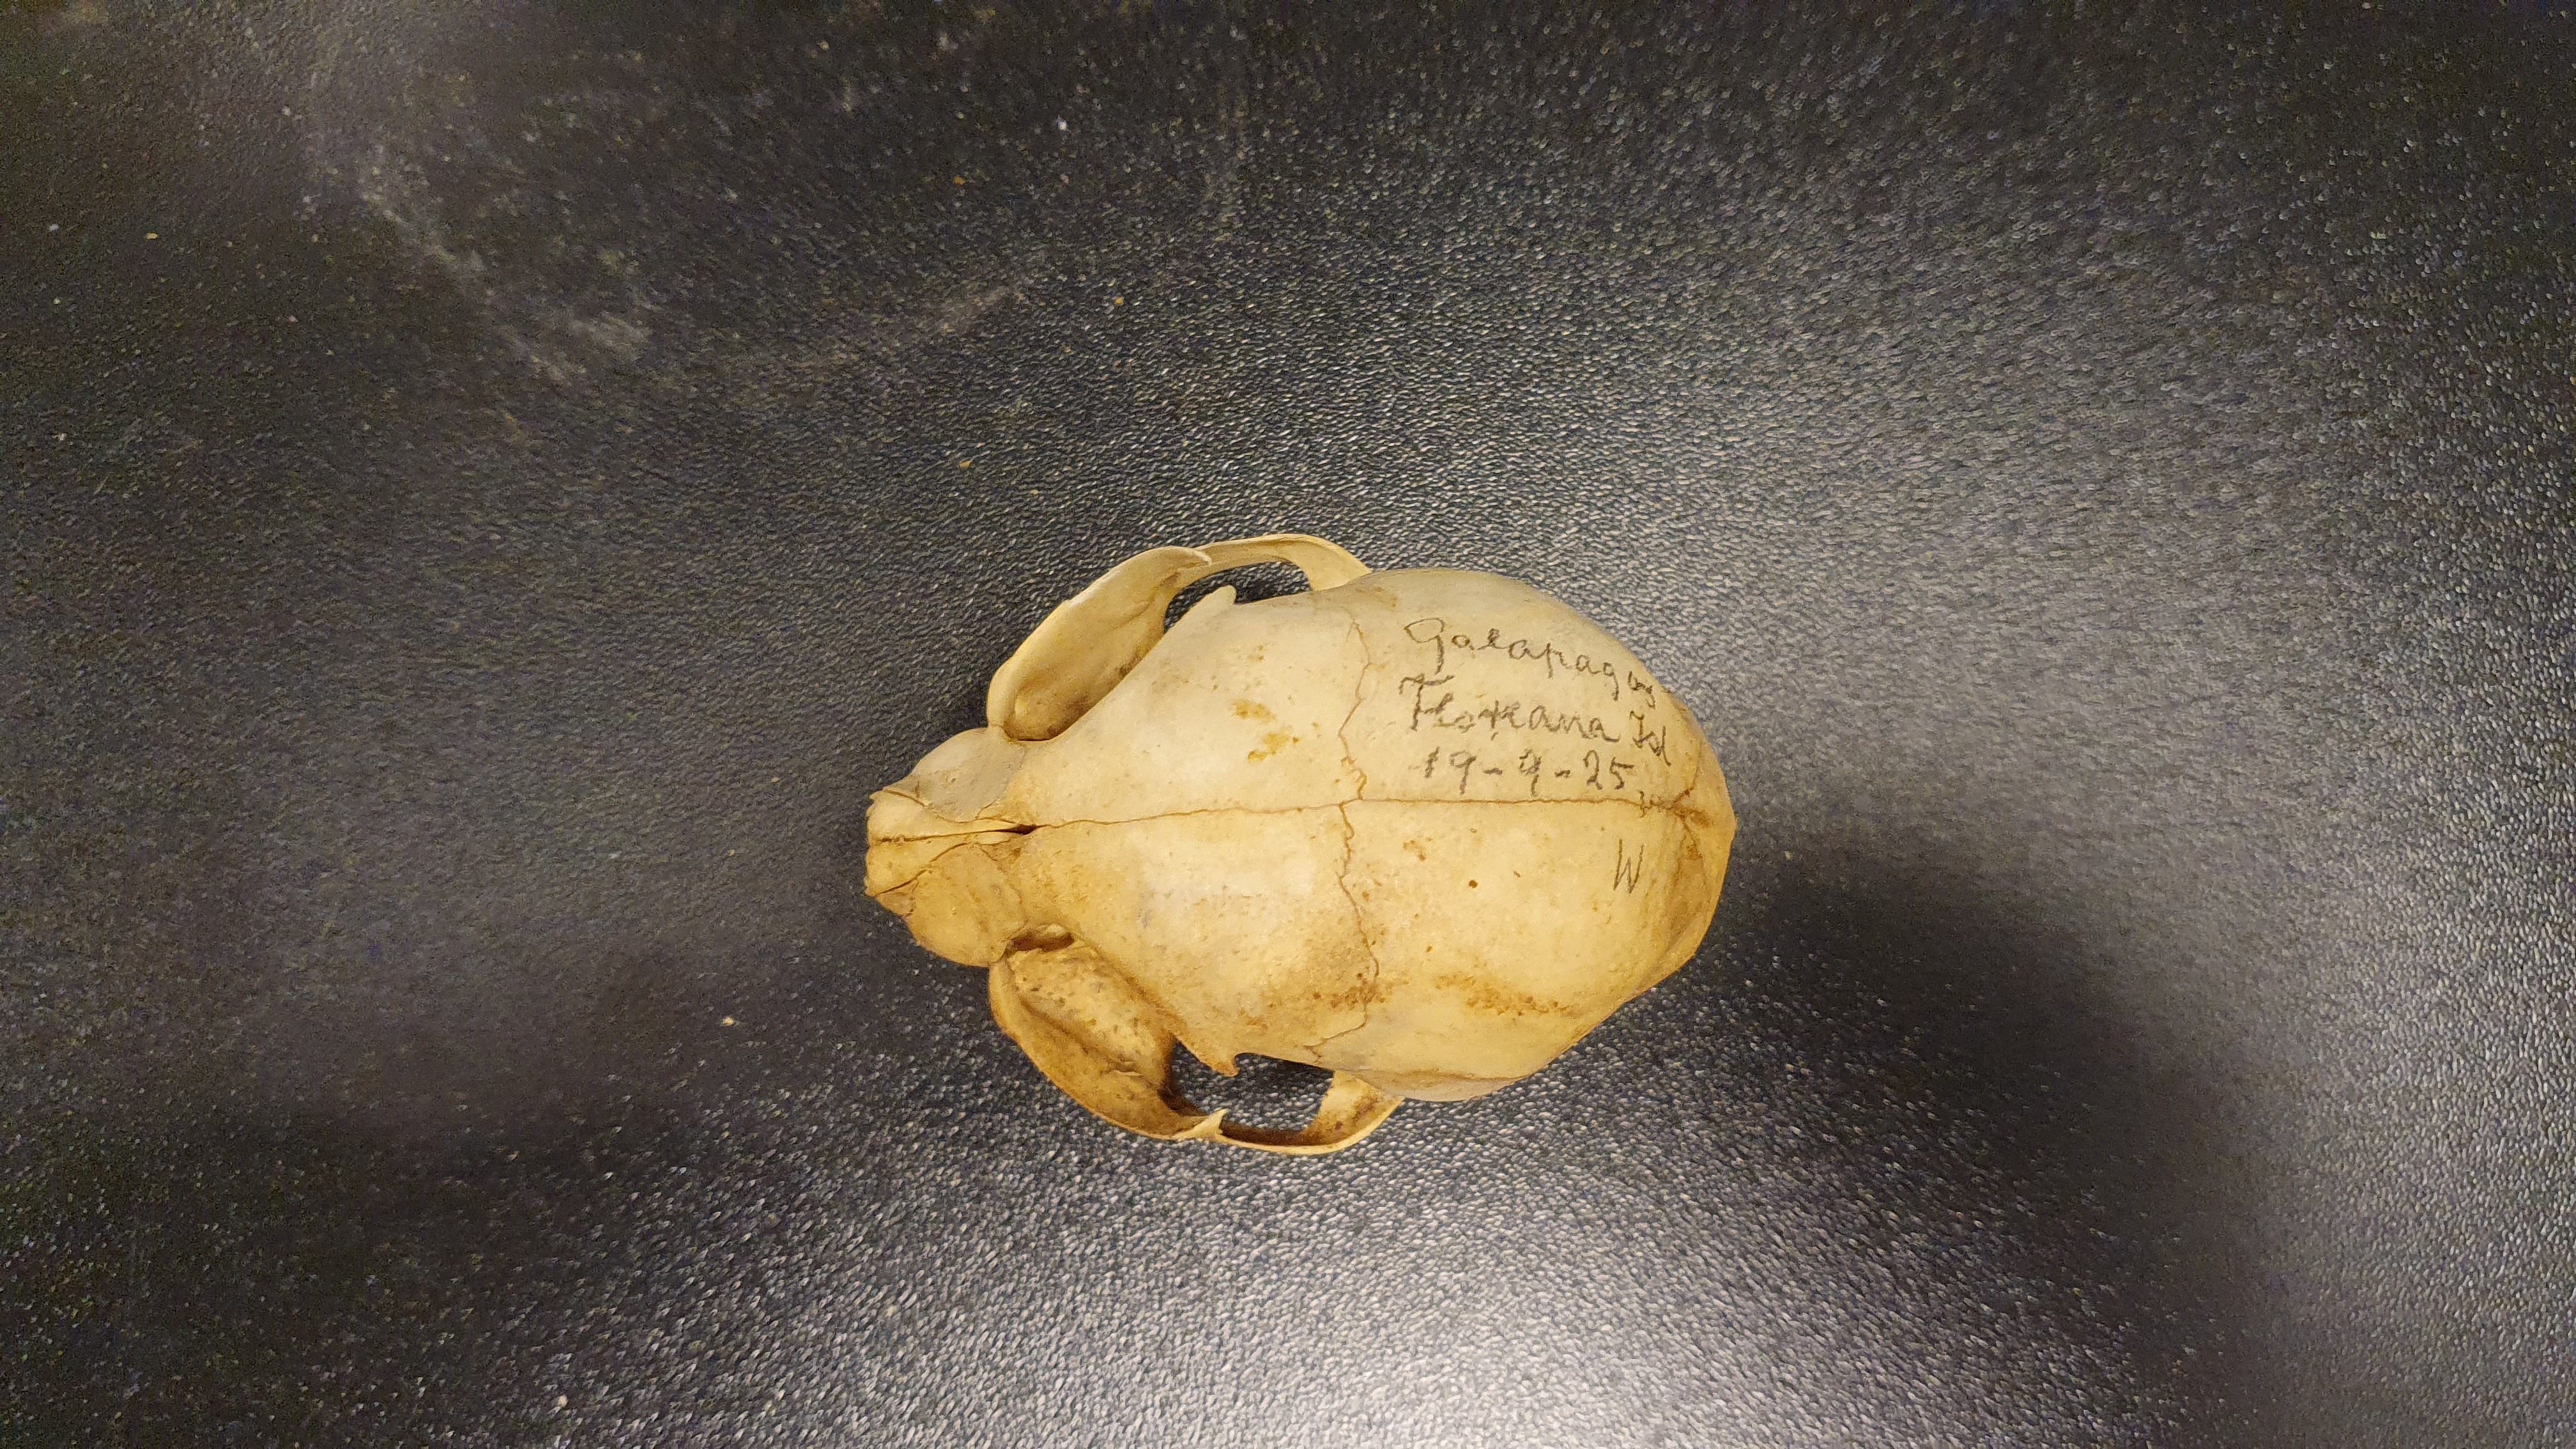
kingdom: Animalia
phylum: Chordata
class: Mammalia
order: Carnivora
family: Felidae
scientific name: Felidae
